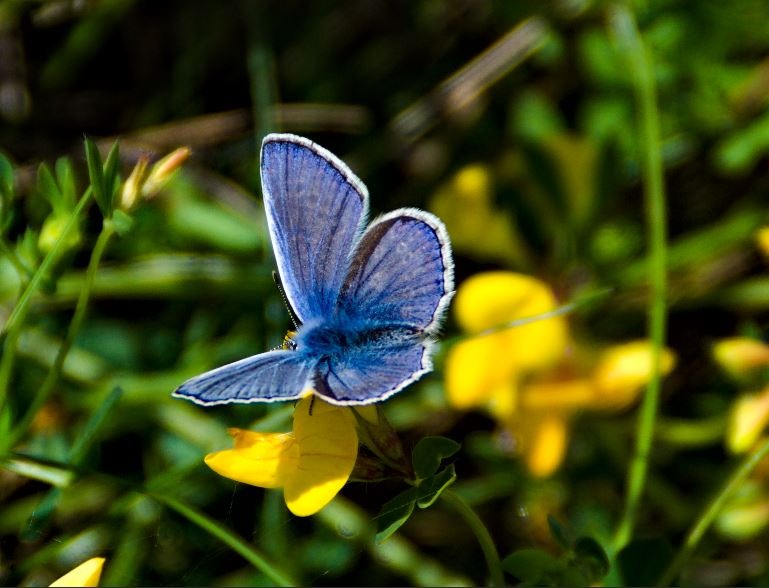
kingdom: Animalia
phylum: Arthropoda
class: Insecta
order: Lepidoptera
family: Lycaenidae
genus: Polyommatus
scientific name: Polyommatus icarus
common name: Almindelig blåfugl
